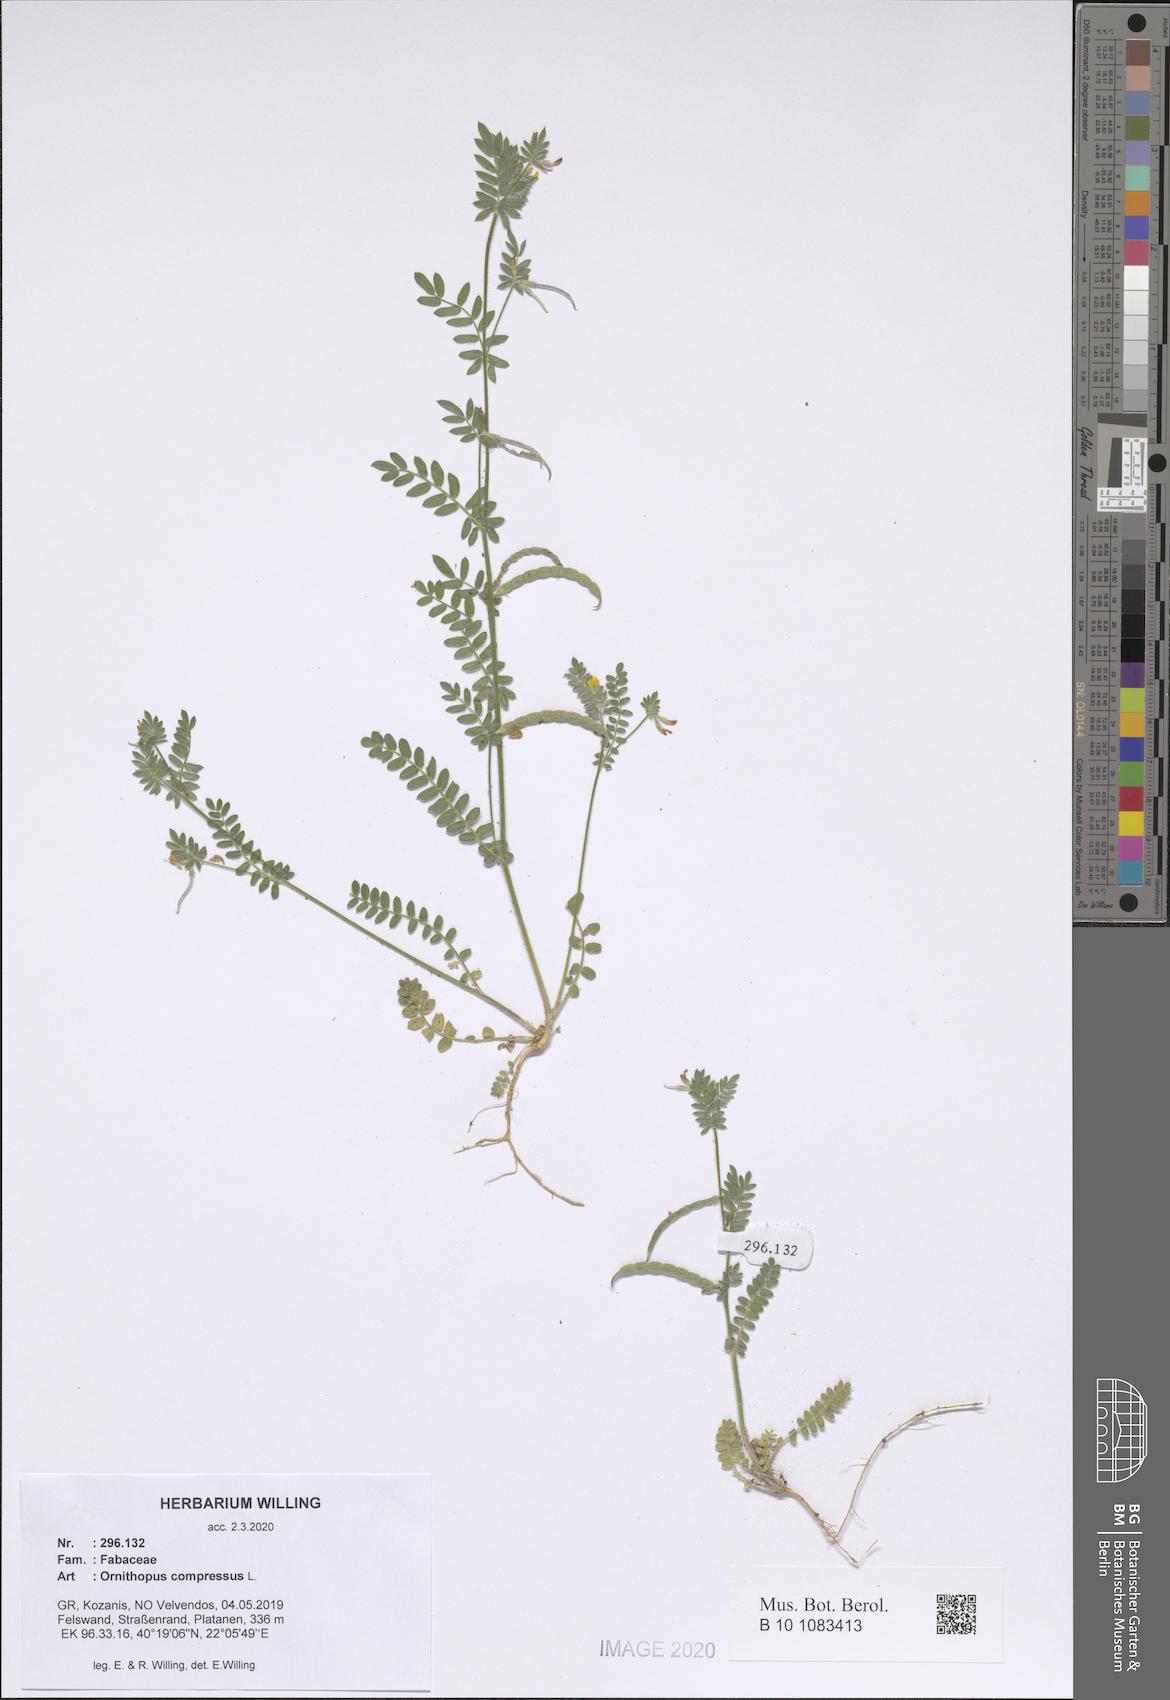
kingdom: Plantae
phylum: Tracheophyta
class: Magnoliopsida
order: Fabales
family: Fabaceae
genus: Ornithopus
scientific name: Ornithopus compressus
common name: Yellow serradella
